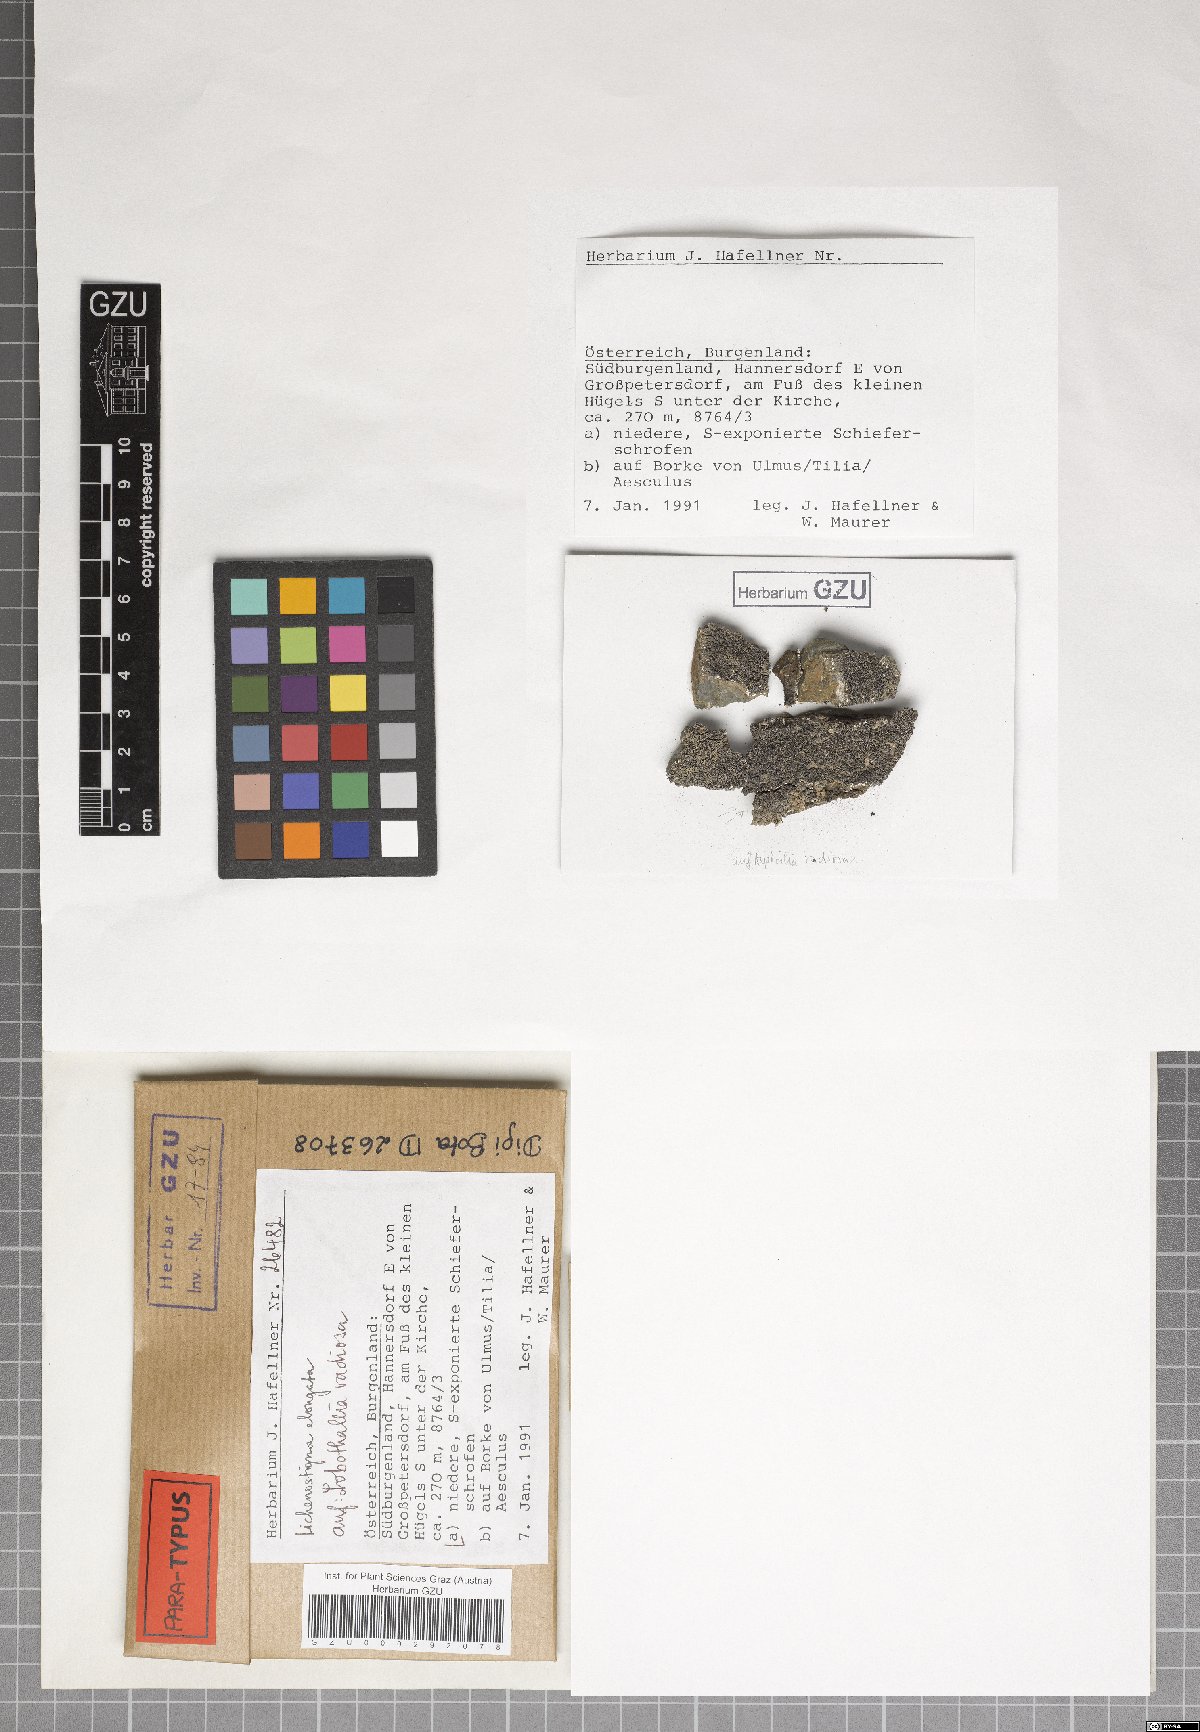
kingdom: Fungi
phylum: Ascomycota
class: Arthoniomycetes
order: Lichenostigmatales
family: Phaeococcomycetaceae
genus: Lichenostigma
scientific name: Lichenostigma elongatum
